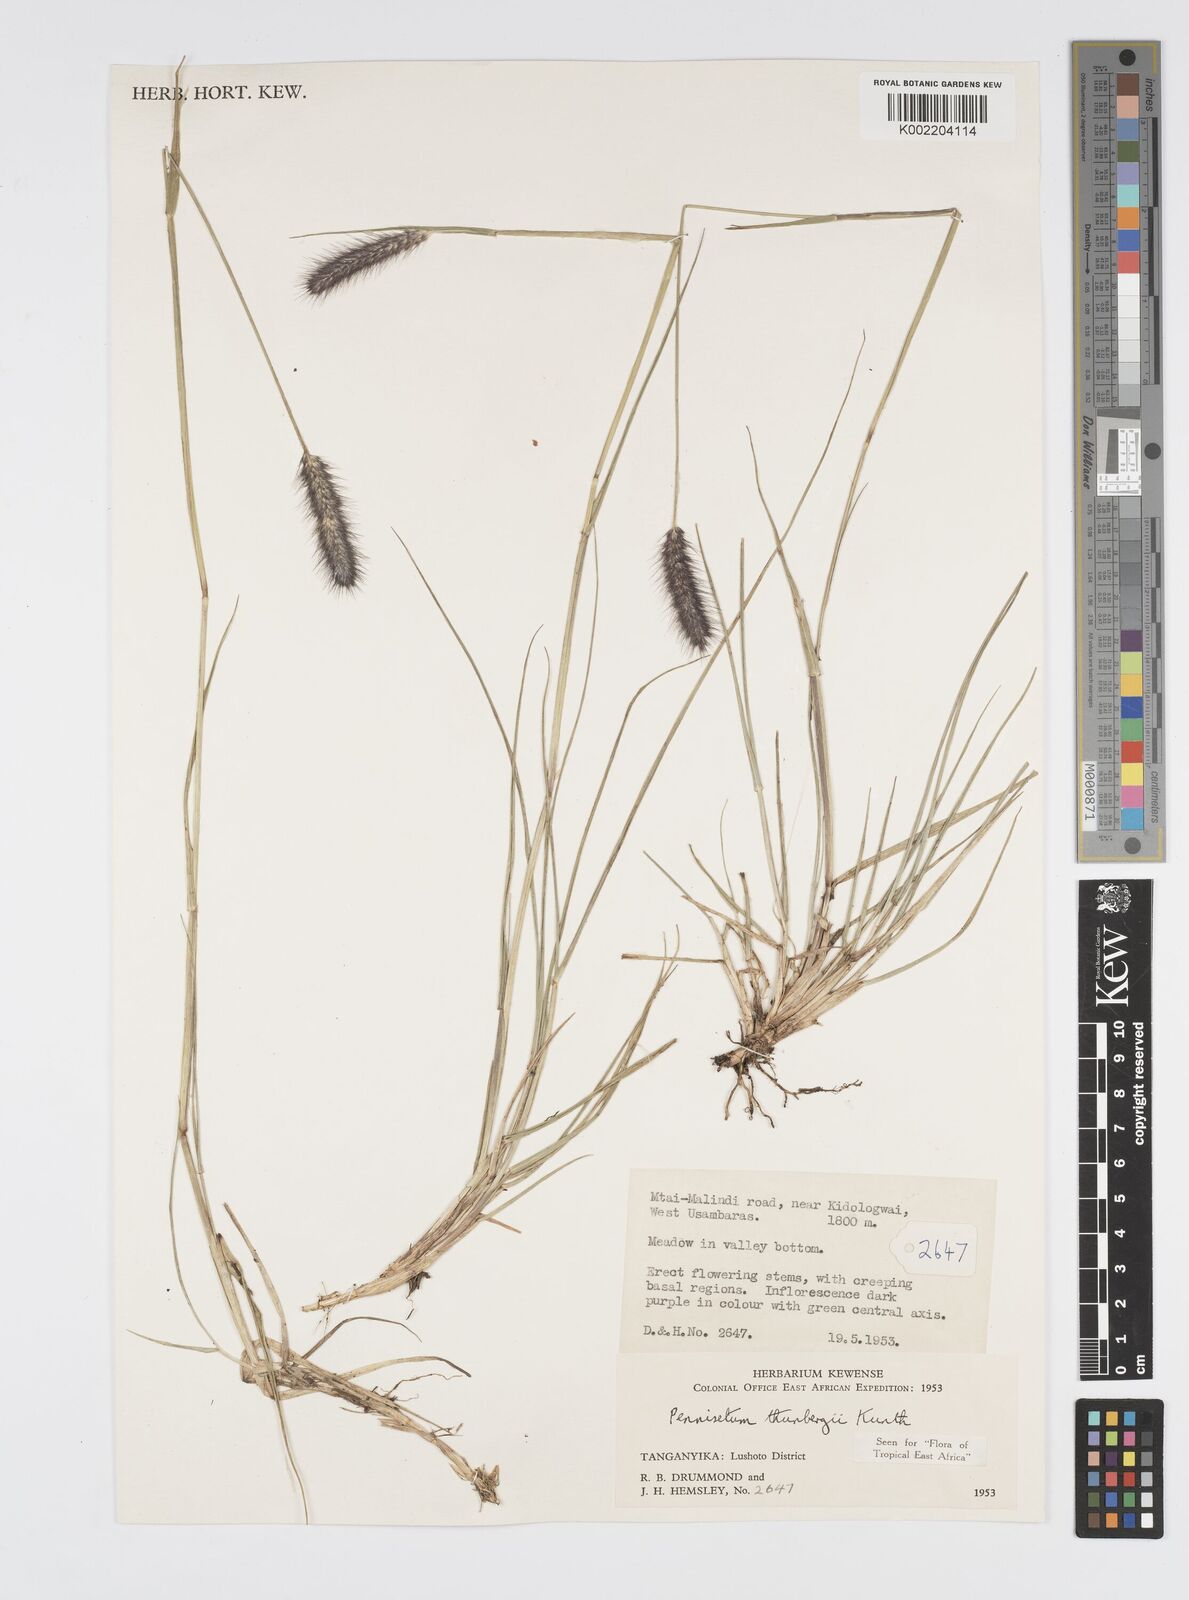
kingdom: Plantae
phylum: Tracheophyta
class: Liliopsida
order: Poales
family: Poaceae
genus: Cenchrus
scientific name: Cenchrus geniculatus
